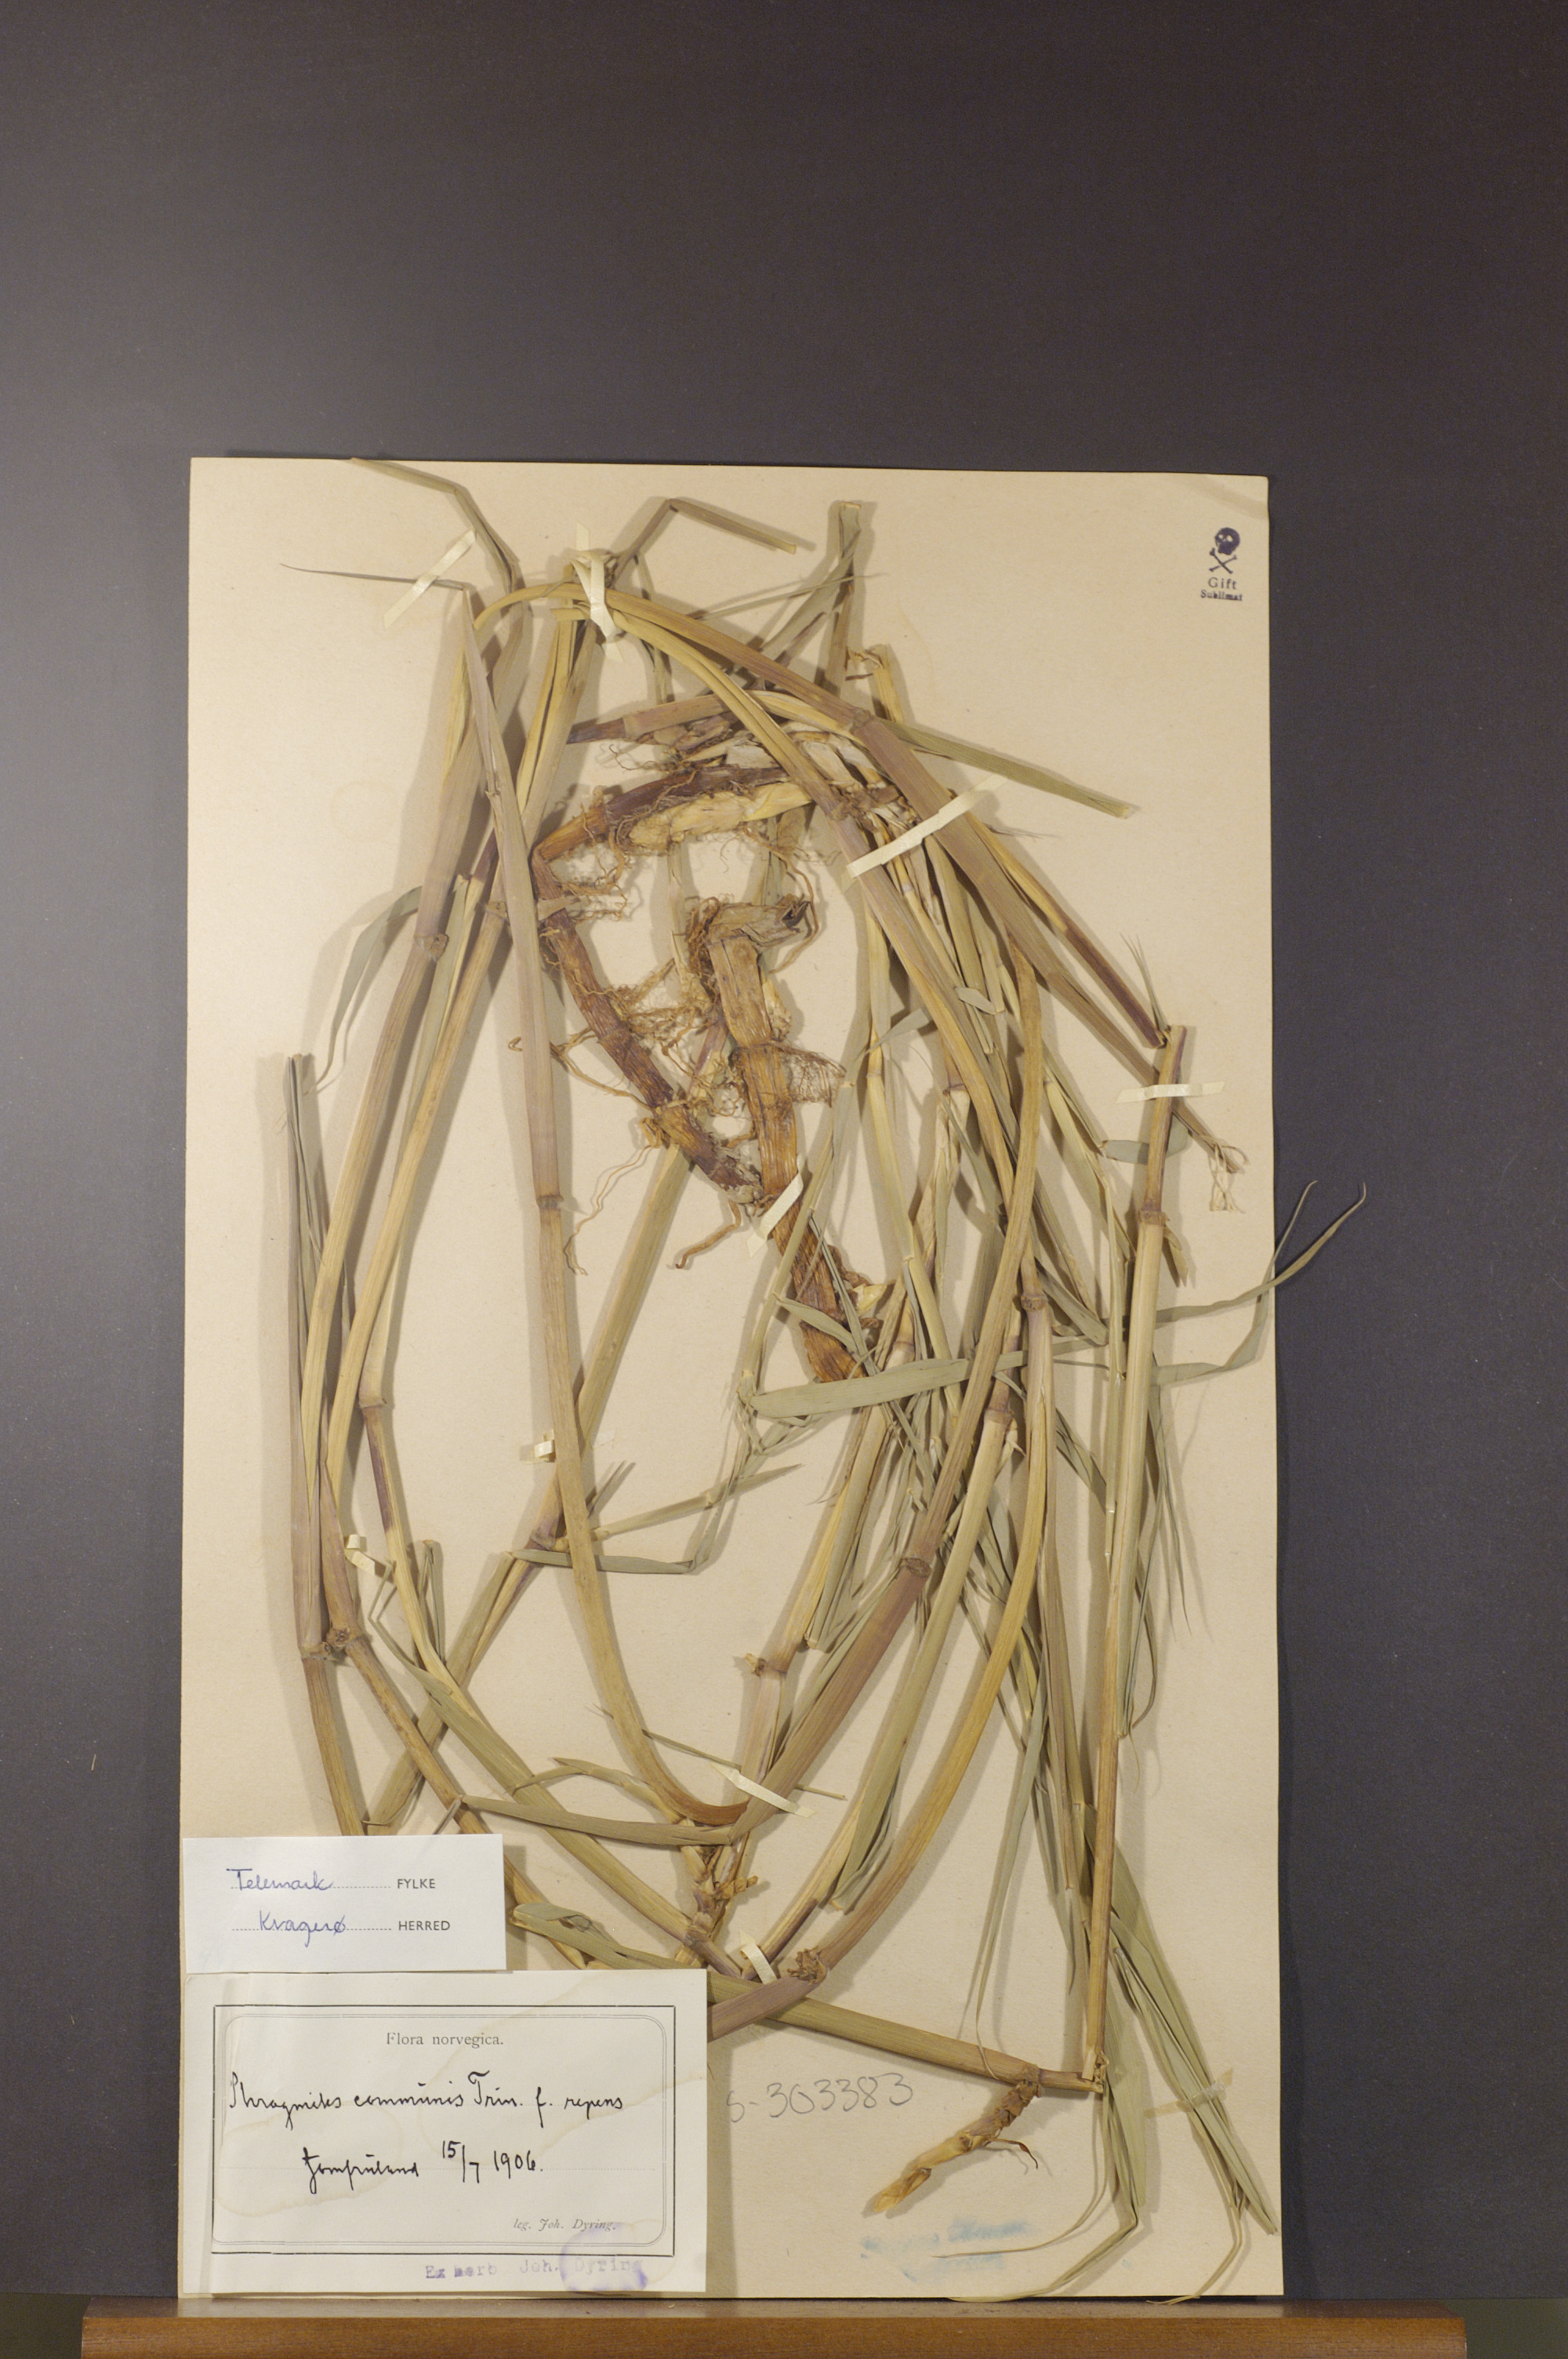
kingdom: Plantae
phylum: Tracheophyta
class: Liliopsida
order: Poales
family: Poaceae
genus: Phragmites
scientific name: Phragmites australis
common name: Common reed
